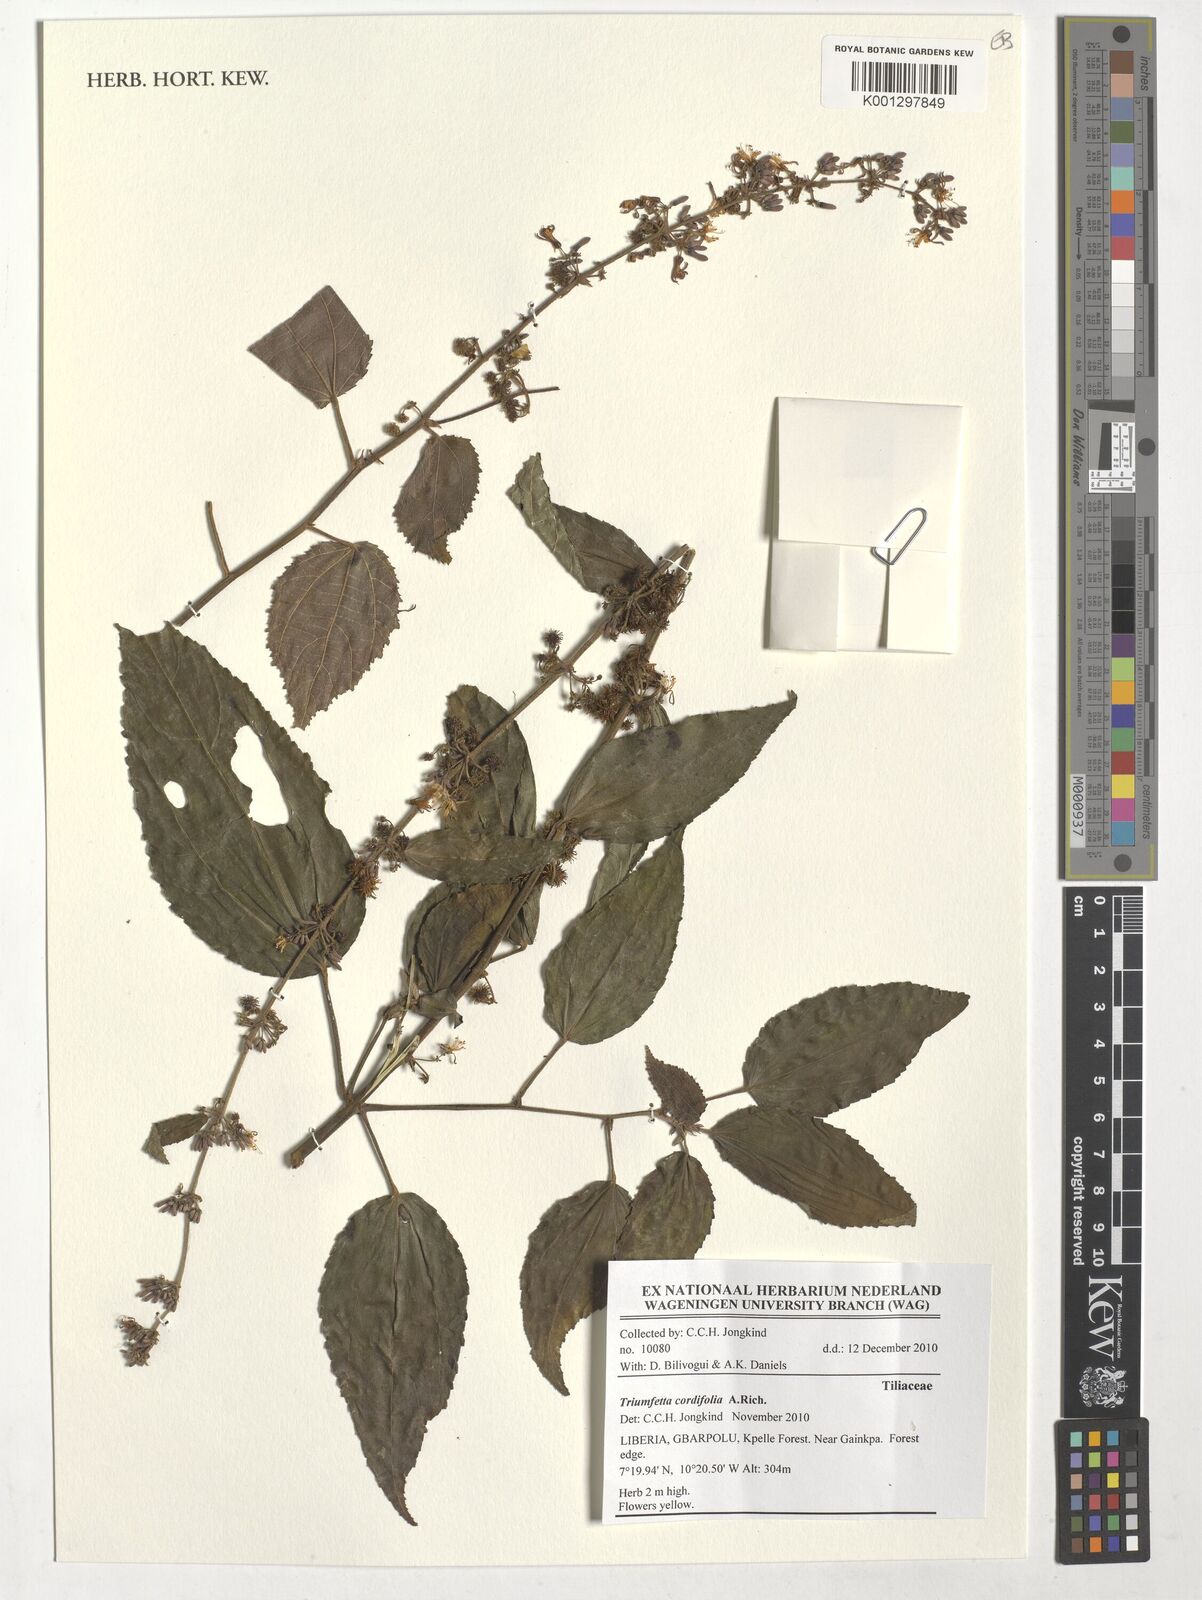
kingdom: Plantae
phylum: Tracheophyta
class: Magnoliopsida
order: Malvales
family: Malvaceae
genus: Triumfetta
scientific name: Triumfetta cordifolia
